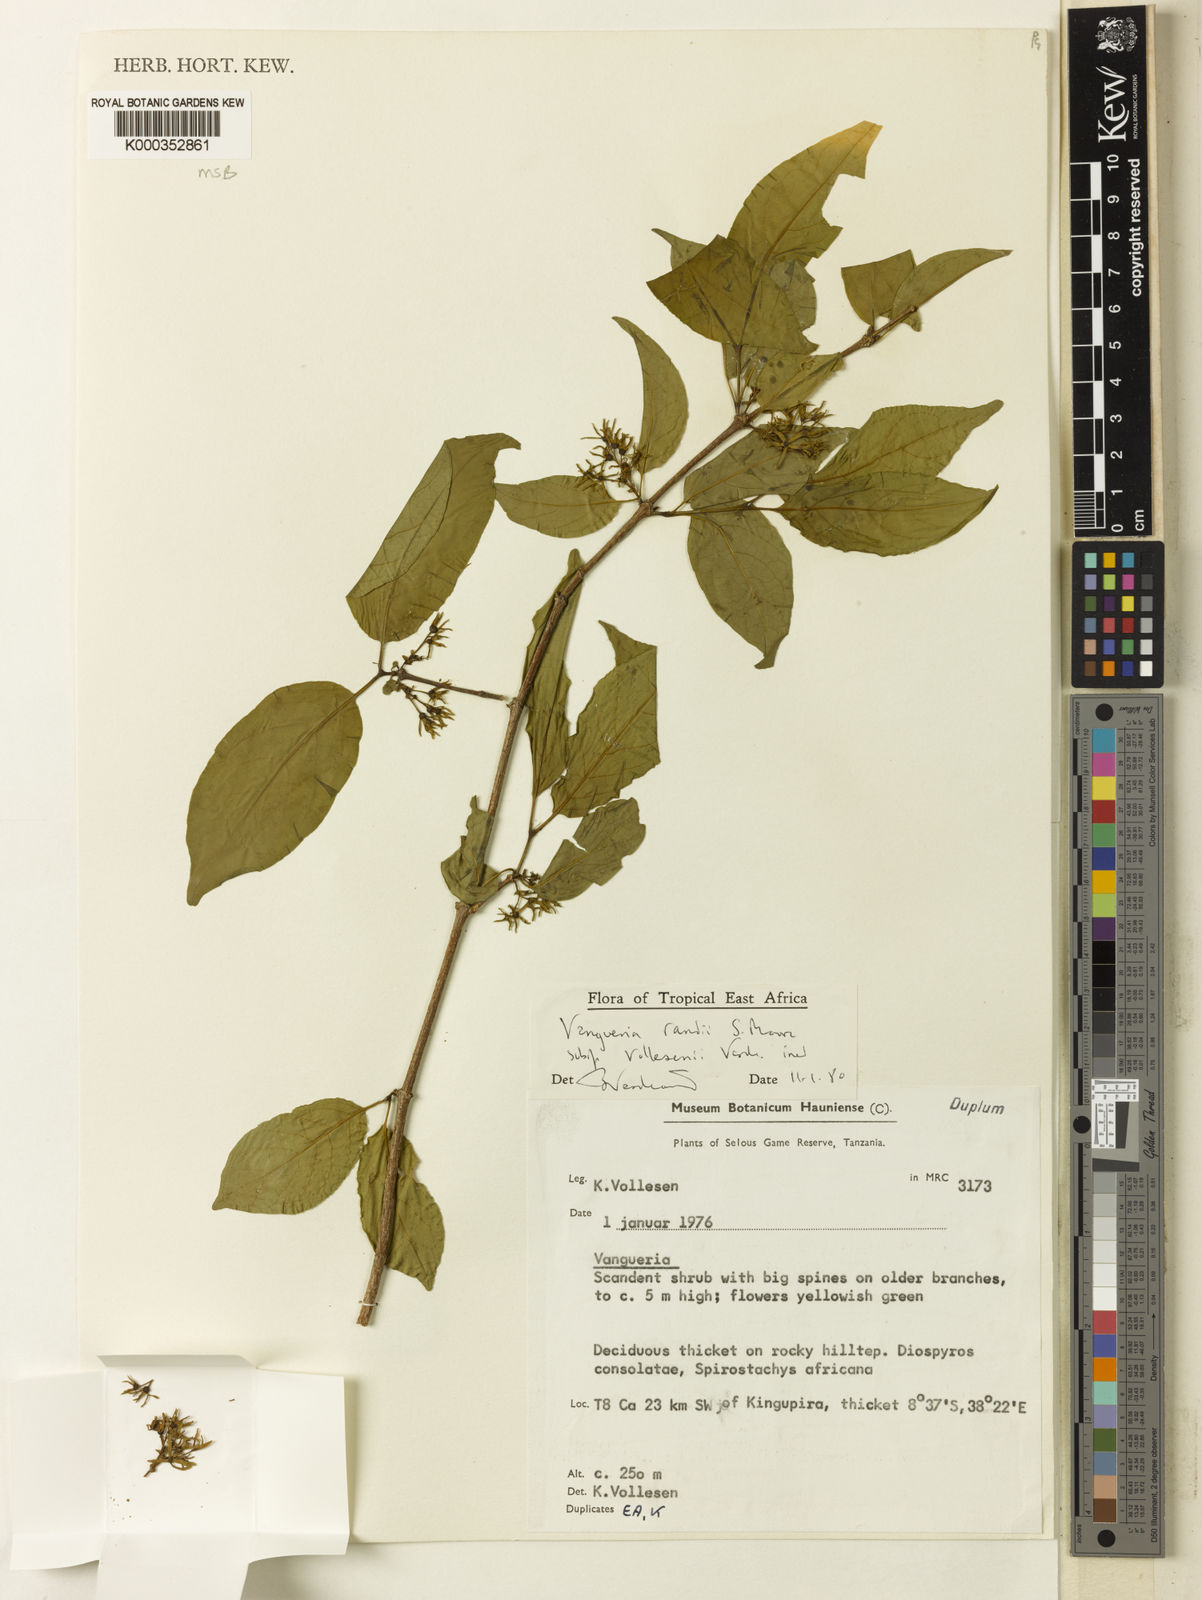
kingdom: Plantae
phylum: Tracheophyta
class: Magnoliopsida
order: Gentianales
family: Rubiaceae
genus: Vangueria
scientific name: Vangueria randii
